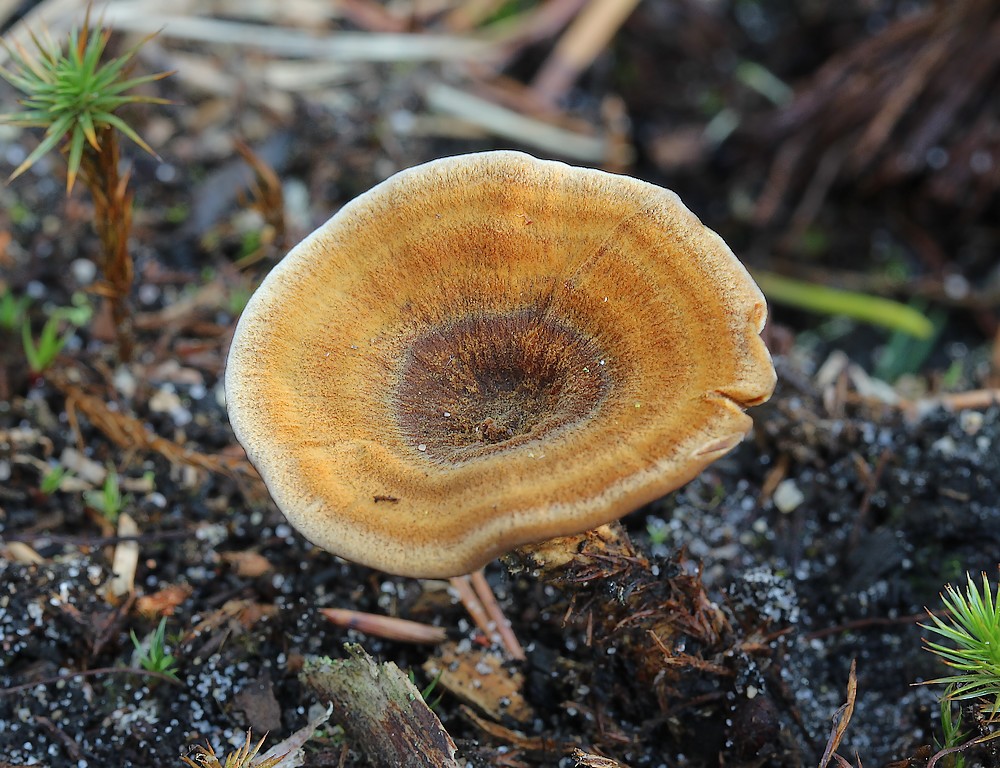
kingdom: Fungi
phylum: Basidiomycota
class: Agaricomycetes
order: Hymenochaetales
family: Hymenochaetaceae
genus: Coltricia
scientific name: Coltricia perennis
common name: almindelig sandporesvamp
